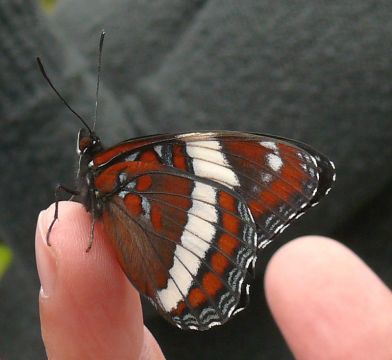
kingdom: Animalia
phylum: Arthropoda
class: Insecta
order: Lepidoptera
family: Nymphalidae
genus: Limenitis
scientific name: Limenitis arthemis
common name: Red-spotted Admiral
